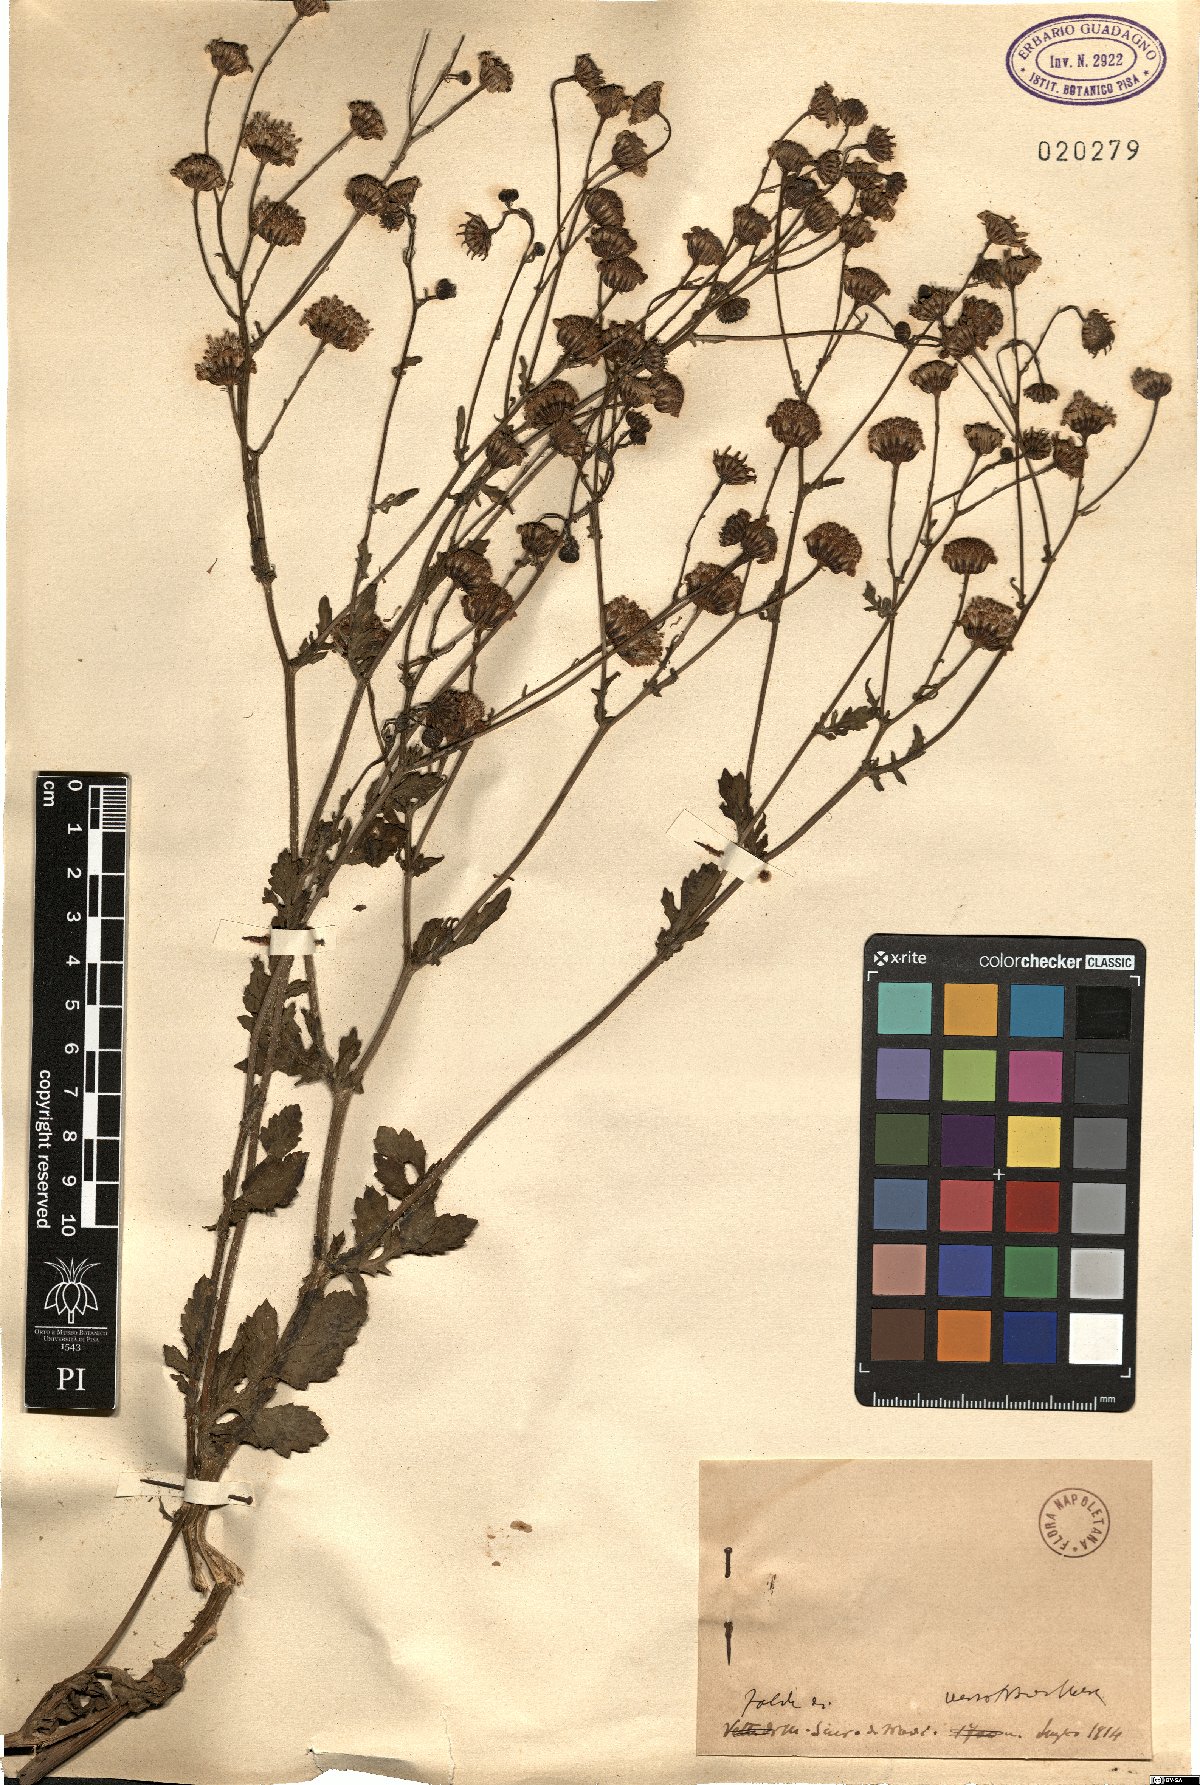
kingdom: Plantae
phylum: Tracheophyta
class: Magnoliopsida
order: Asterales
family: Asteraceae
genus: Senecio
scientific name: Senecio
